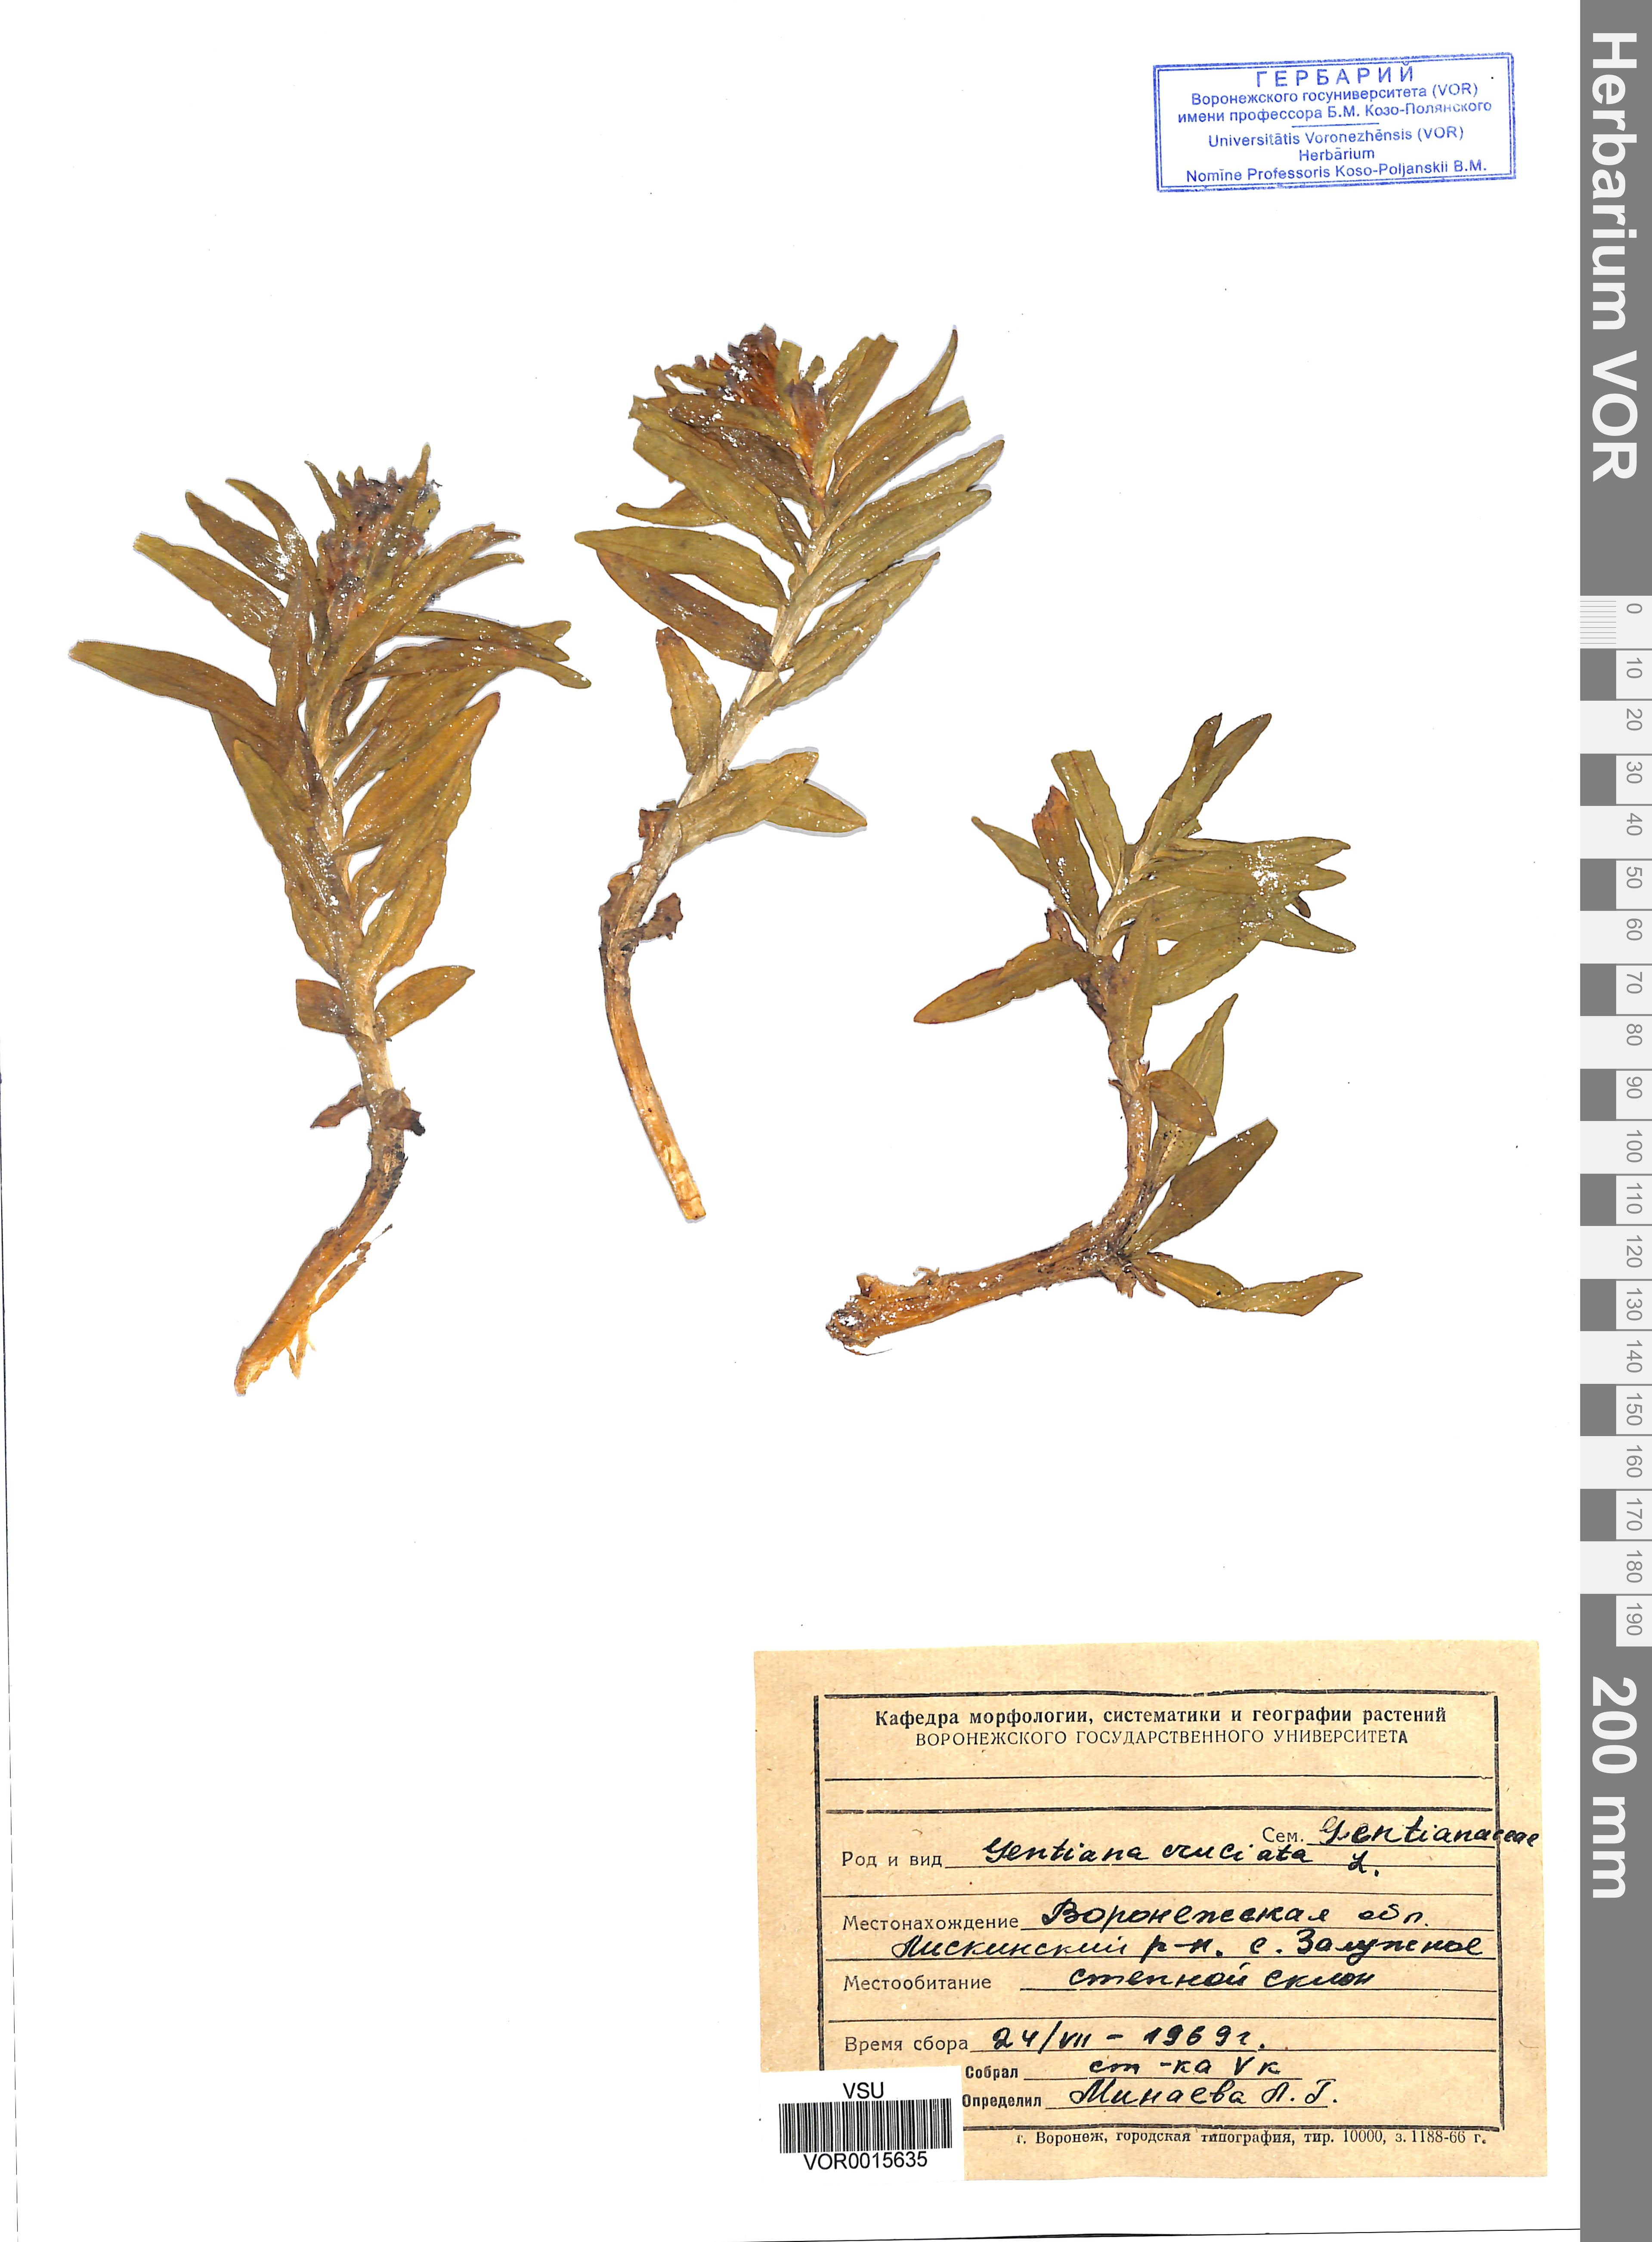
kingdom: Plantae
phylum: Tracheophyta
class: Magnoliopsida
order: Gentianales
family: Gentianaceae
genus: Gentiana
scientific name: Gentiana cruciata
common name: Cross gentian
